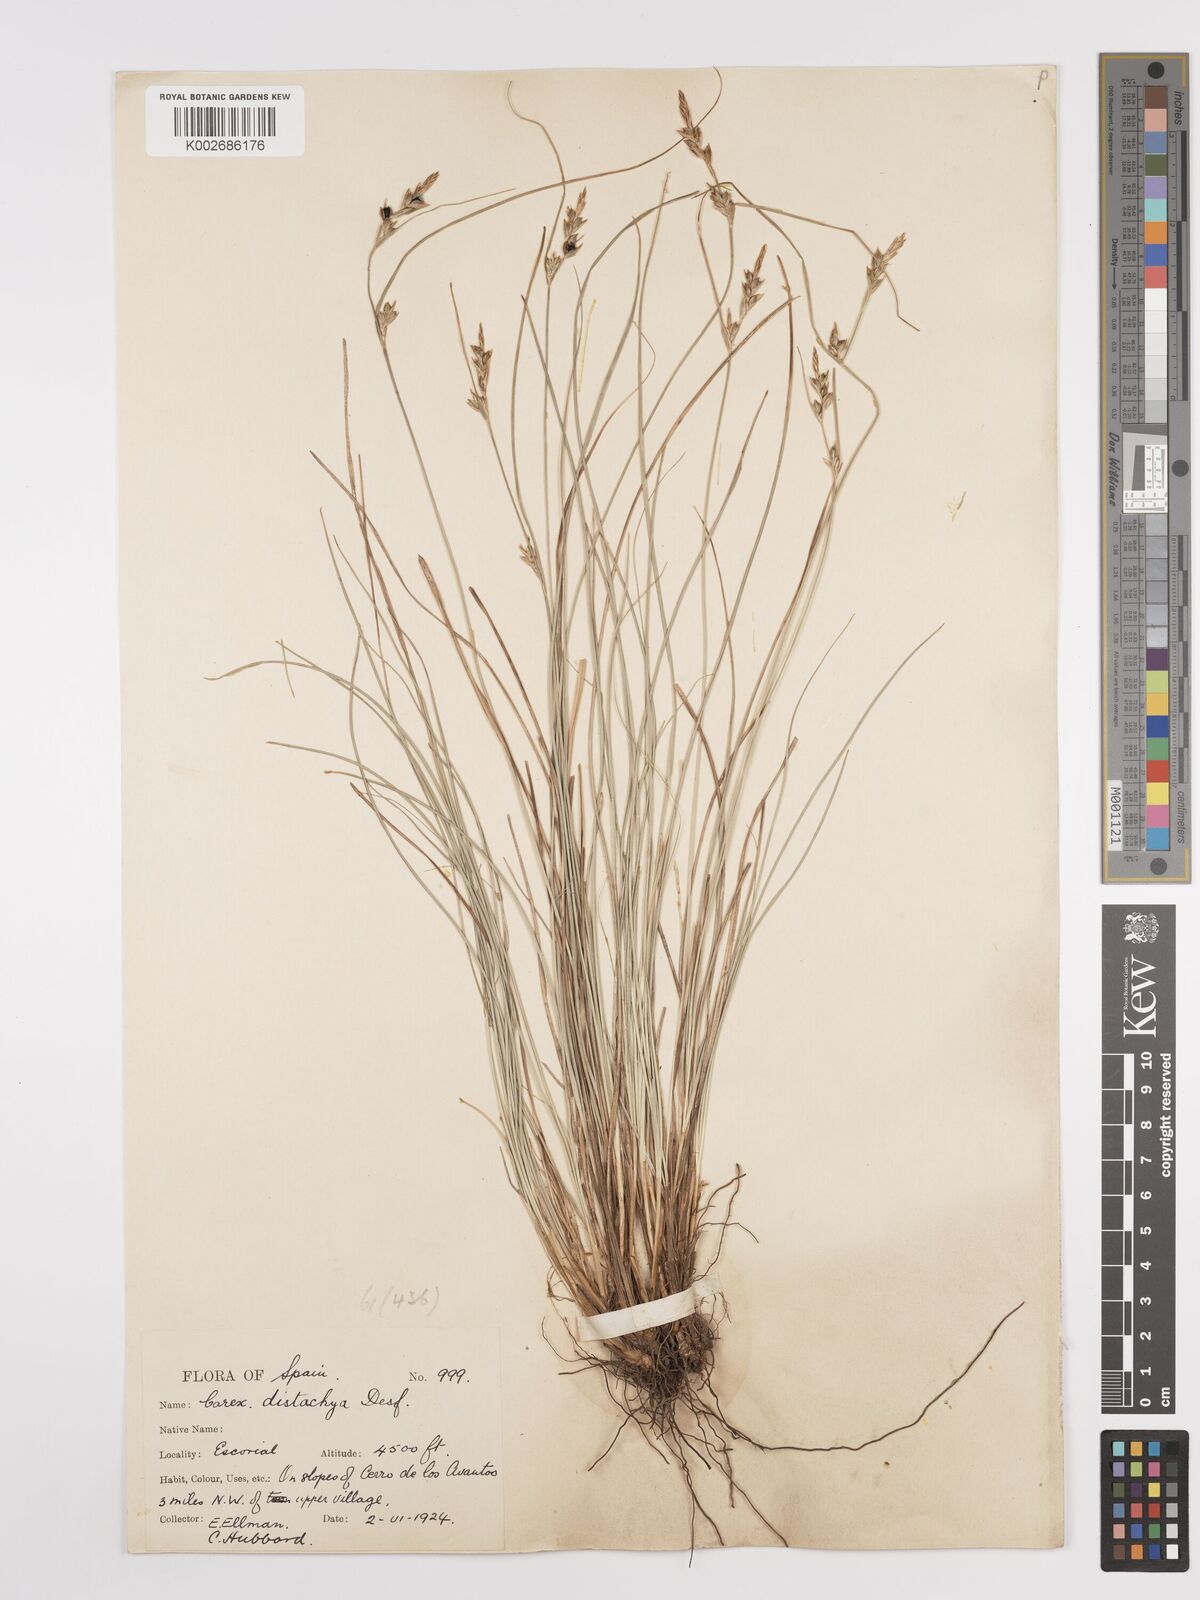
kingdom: Plantae
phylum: Tracheophyta
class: Liliopsida
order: Poales
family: Cyperaceae
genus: Carex
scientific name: Carex distachya
